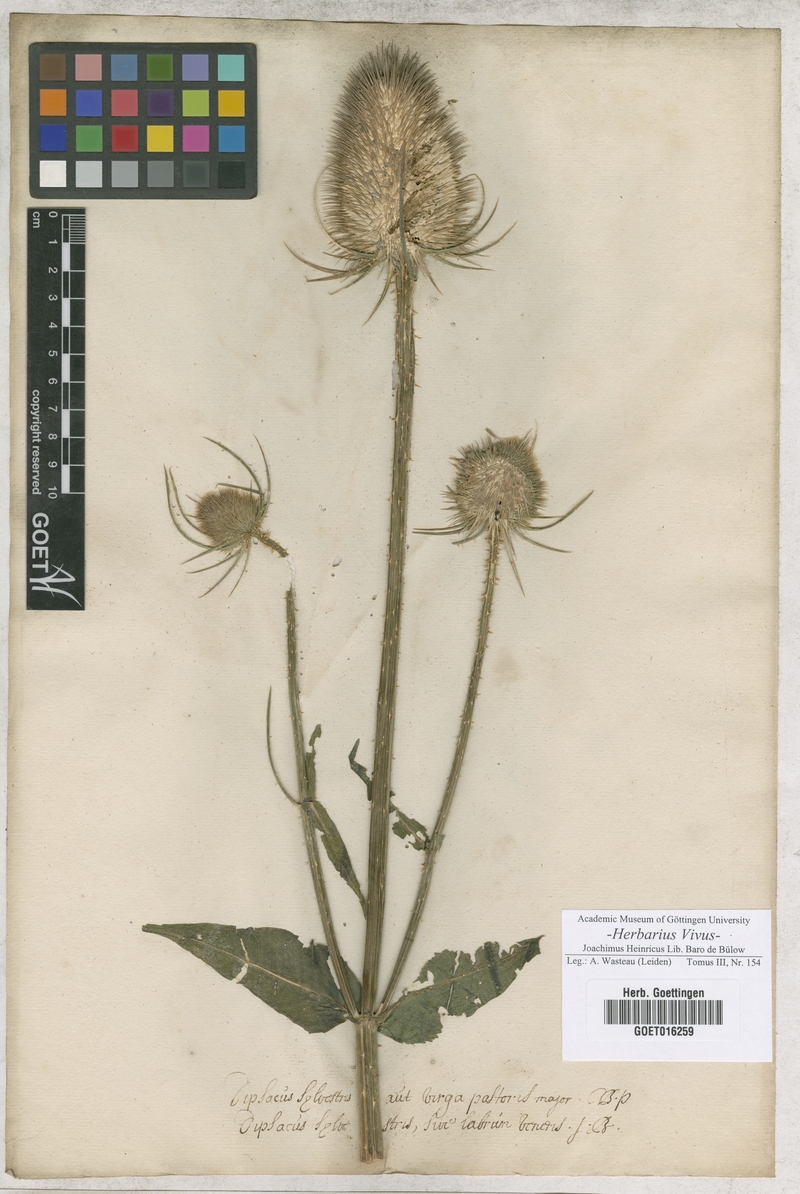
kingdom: Plantae
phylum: Tracheophyta
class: Magnoliopsida
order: Dipsacales
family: Caprifoliaceae
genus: Dipsacus
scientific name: Dipsacus fullonum
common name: Teasel
